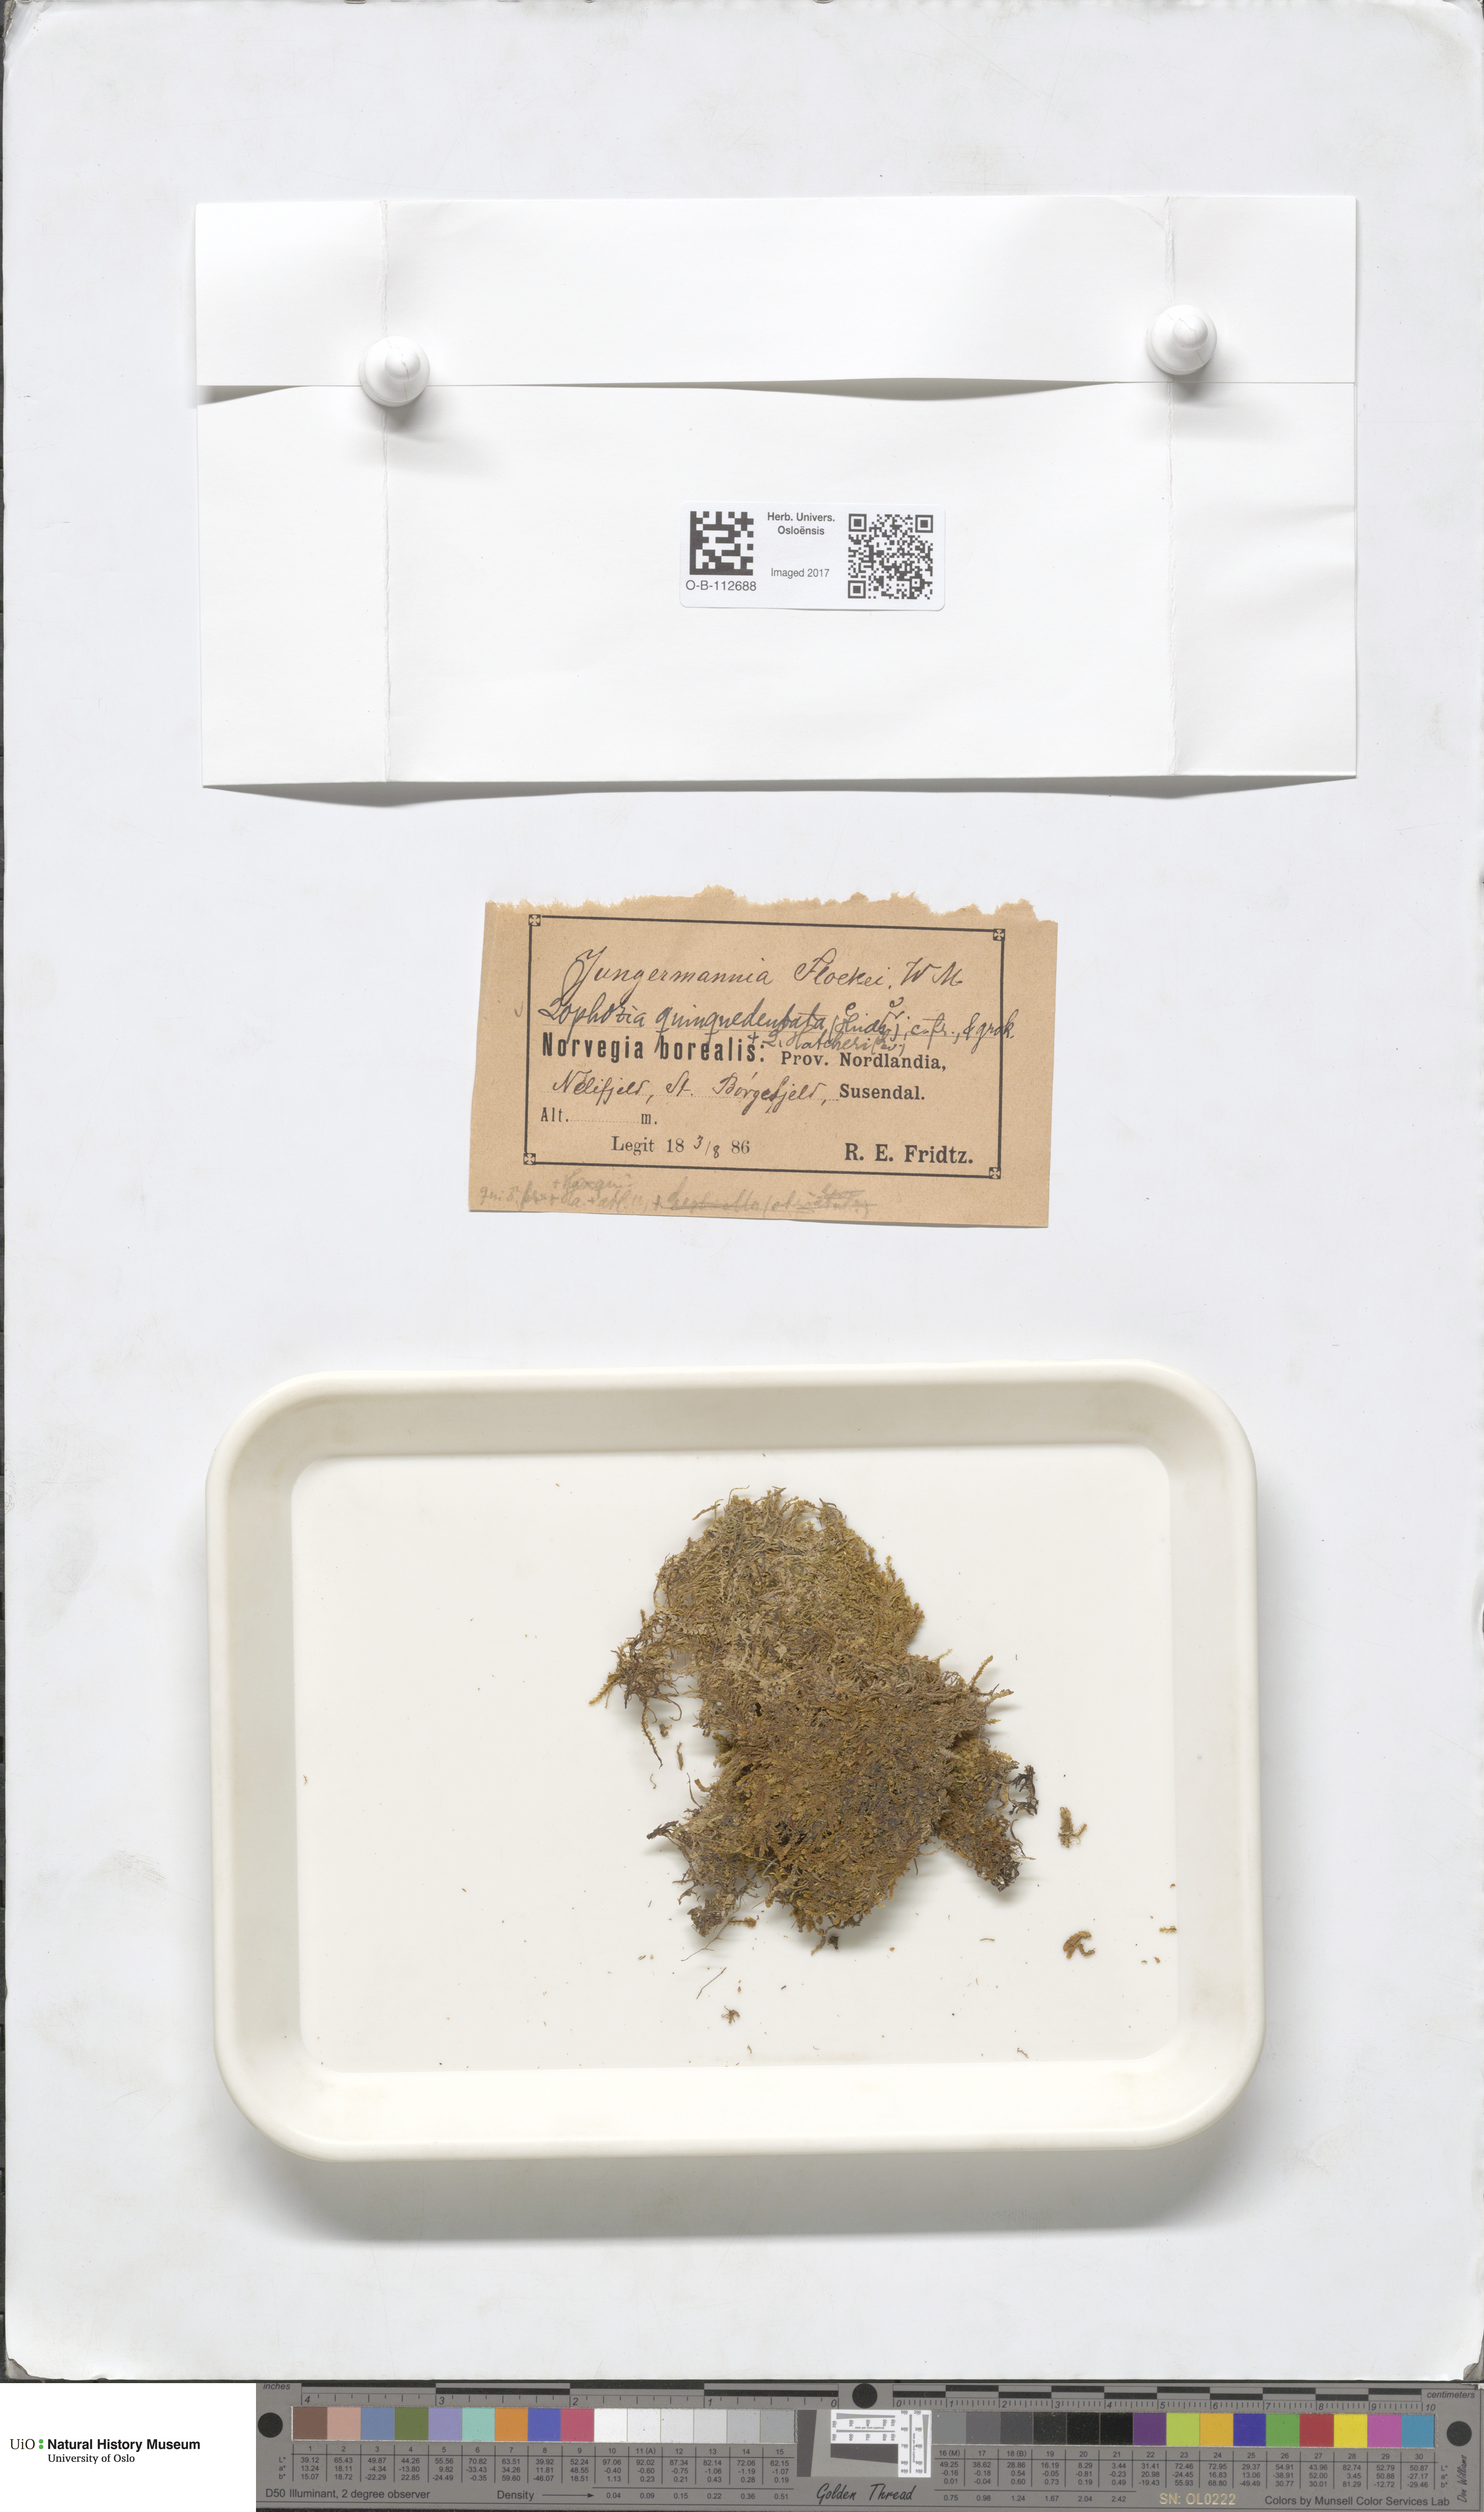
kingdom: Plantae
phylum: Marchantiophyta
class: Jungermanniopsida
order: Jungermanniales
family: Lophoziaceae
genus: Trilophozia
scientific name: Trilophozia quinquedentata
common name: Large notchwort
